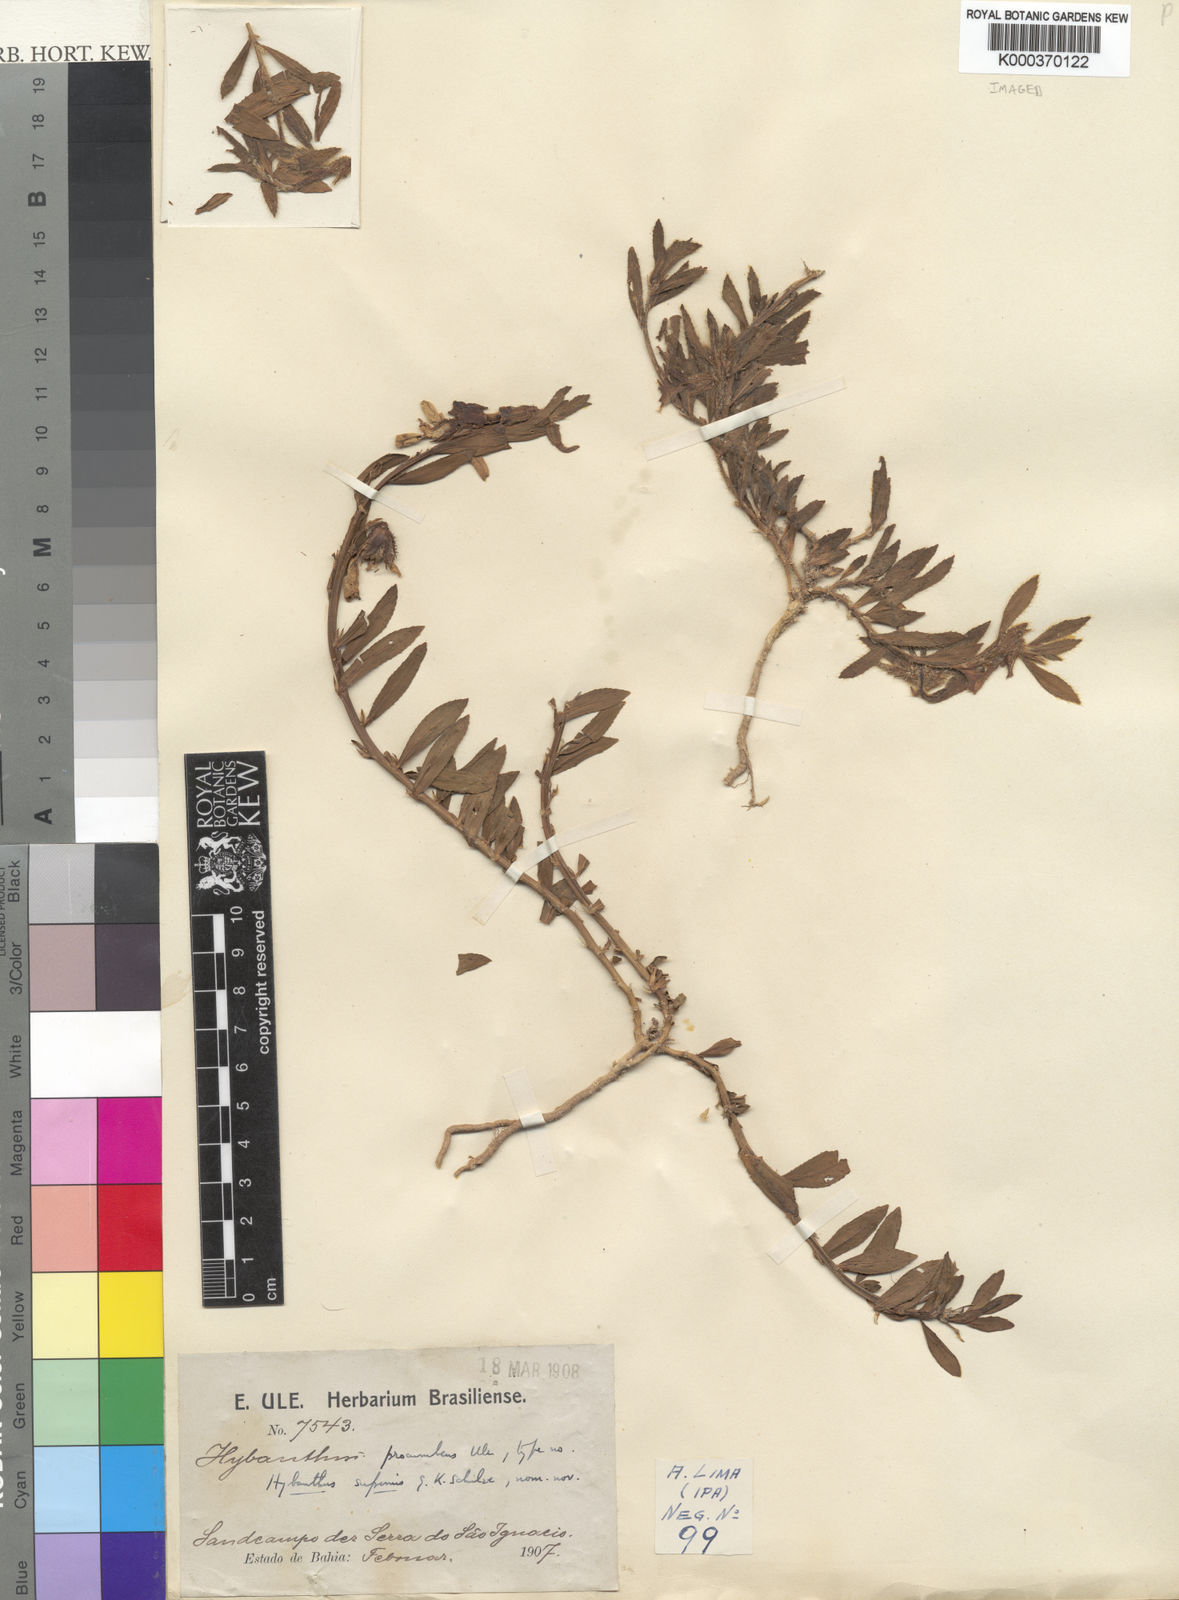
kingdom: Plantae
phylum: Tracheophyta
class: Magnoliopsida
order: Malpighiales
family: Violaceae
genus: Pombalia
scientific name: Pombalia calceolaria
